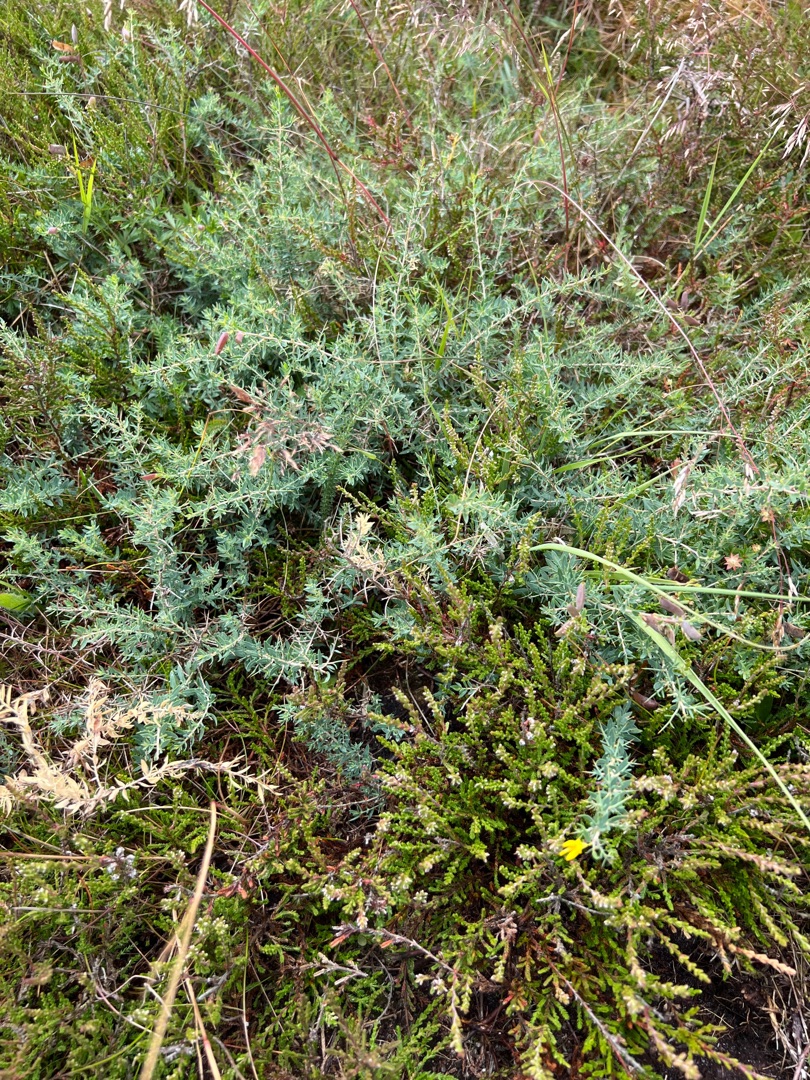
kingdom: Plantae
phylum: Tracheophyta
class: Magnoliopsida
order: Fabales
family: Fabaceae
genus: Genista
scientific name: Genista anglica
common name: Engelsk visse
